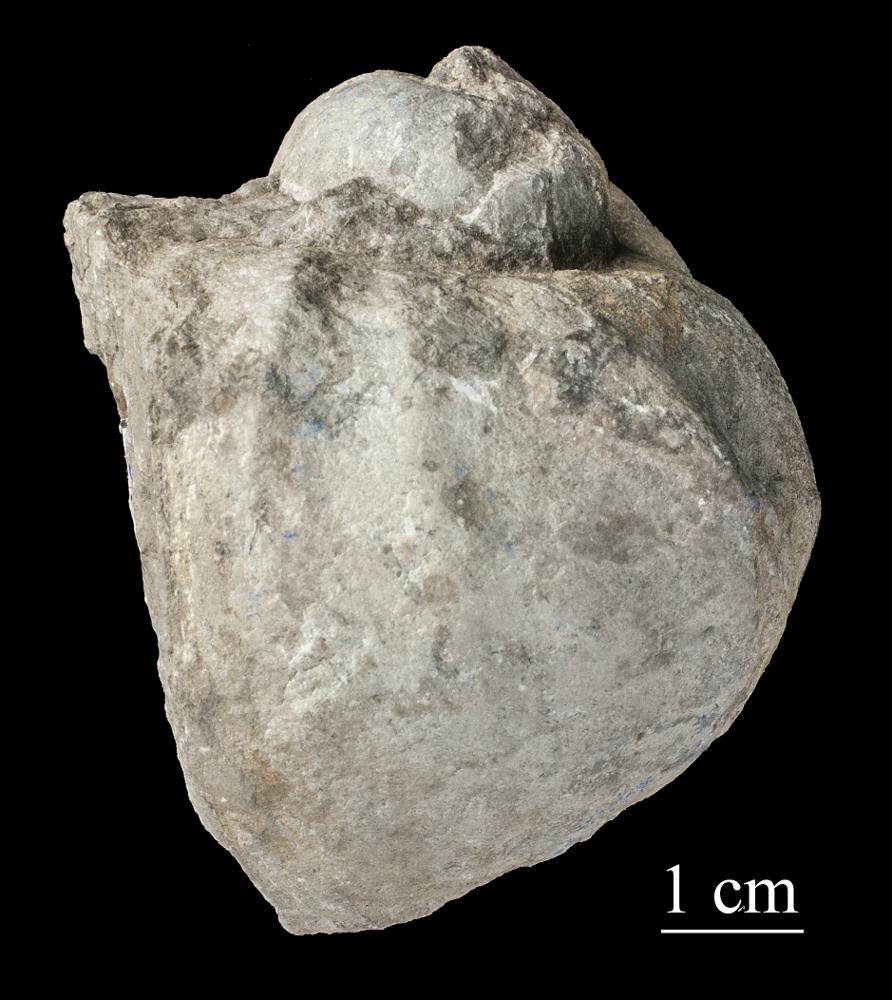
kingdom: Animalia
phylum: Mollusca
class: Gastropoda
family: Holopeidae
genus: Holopea
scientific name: Holopea ampullacea
